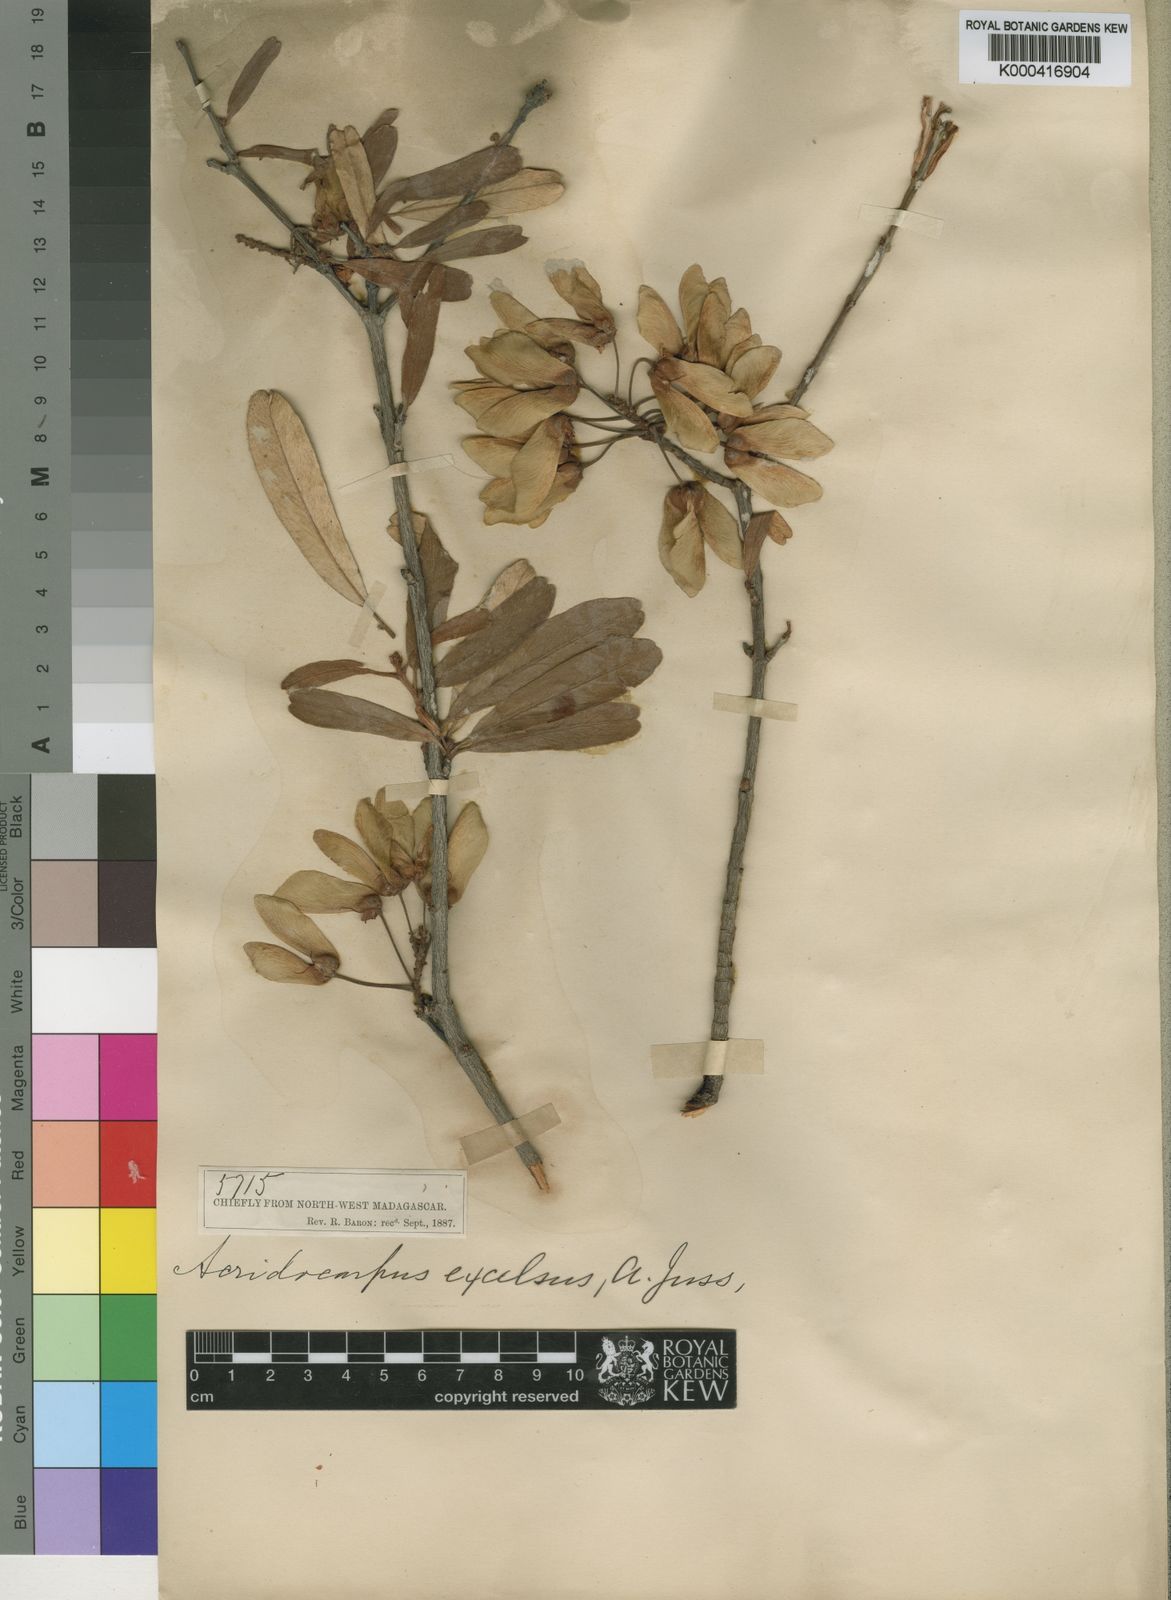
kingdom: Plantae
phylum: Tracheophyta
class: Magnoliopsida
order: Malpighiales
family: Malpighiaceae
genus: Acridocarpus
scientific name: Acridocarpus excelsus
